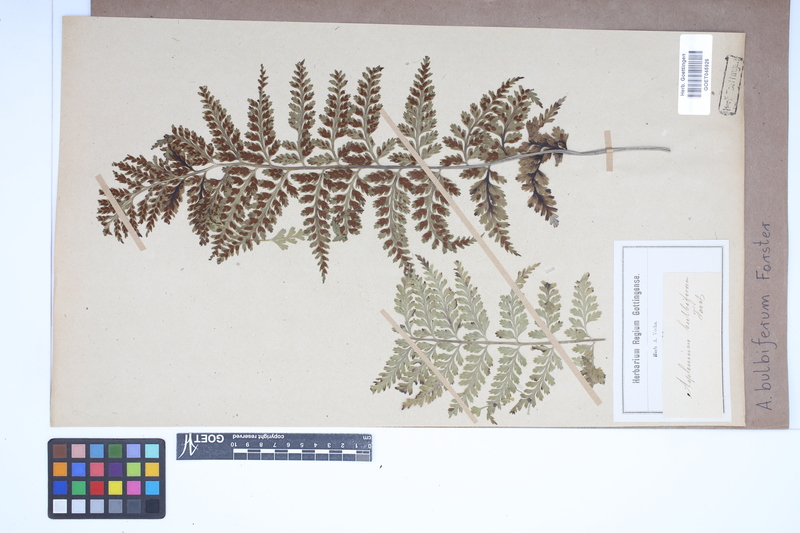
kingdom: Plantae
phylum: Tracheophyta
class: Polypodiopsida
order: Polypodiales
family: Aspleniaceae
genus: Asplenium
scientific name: Asplenium bulbiferum
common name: Mother fern
